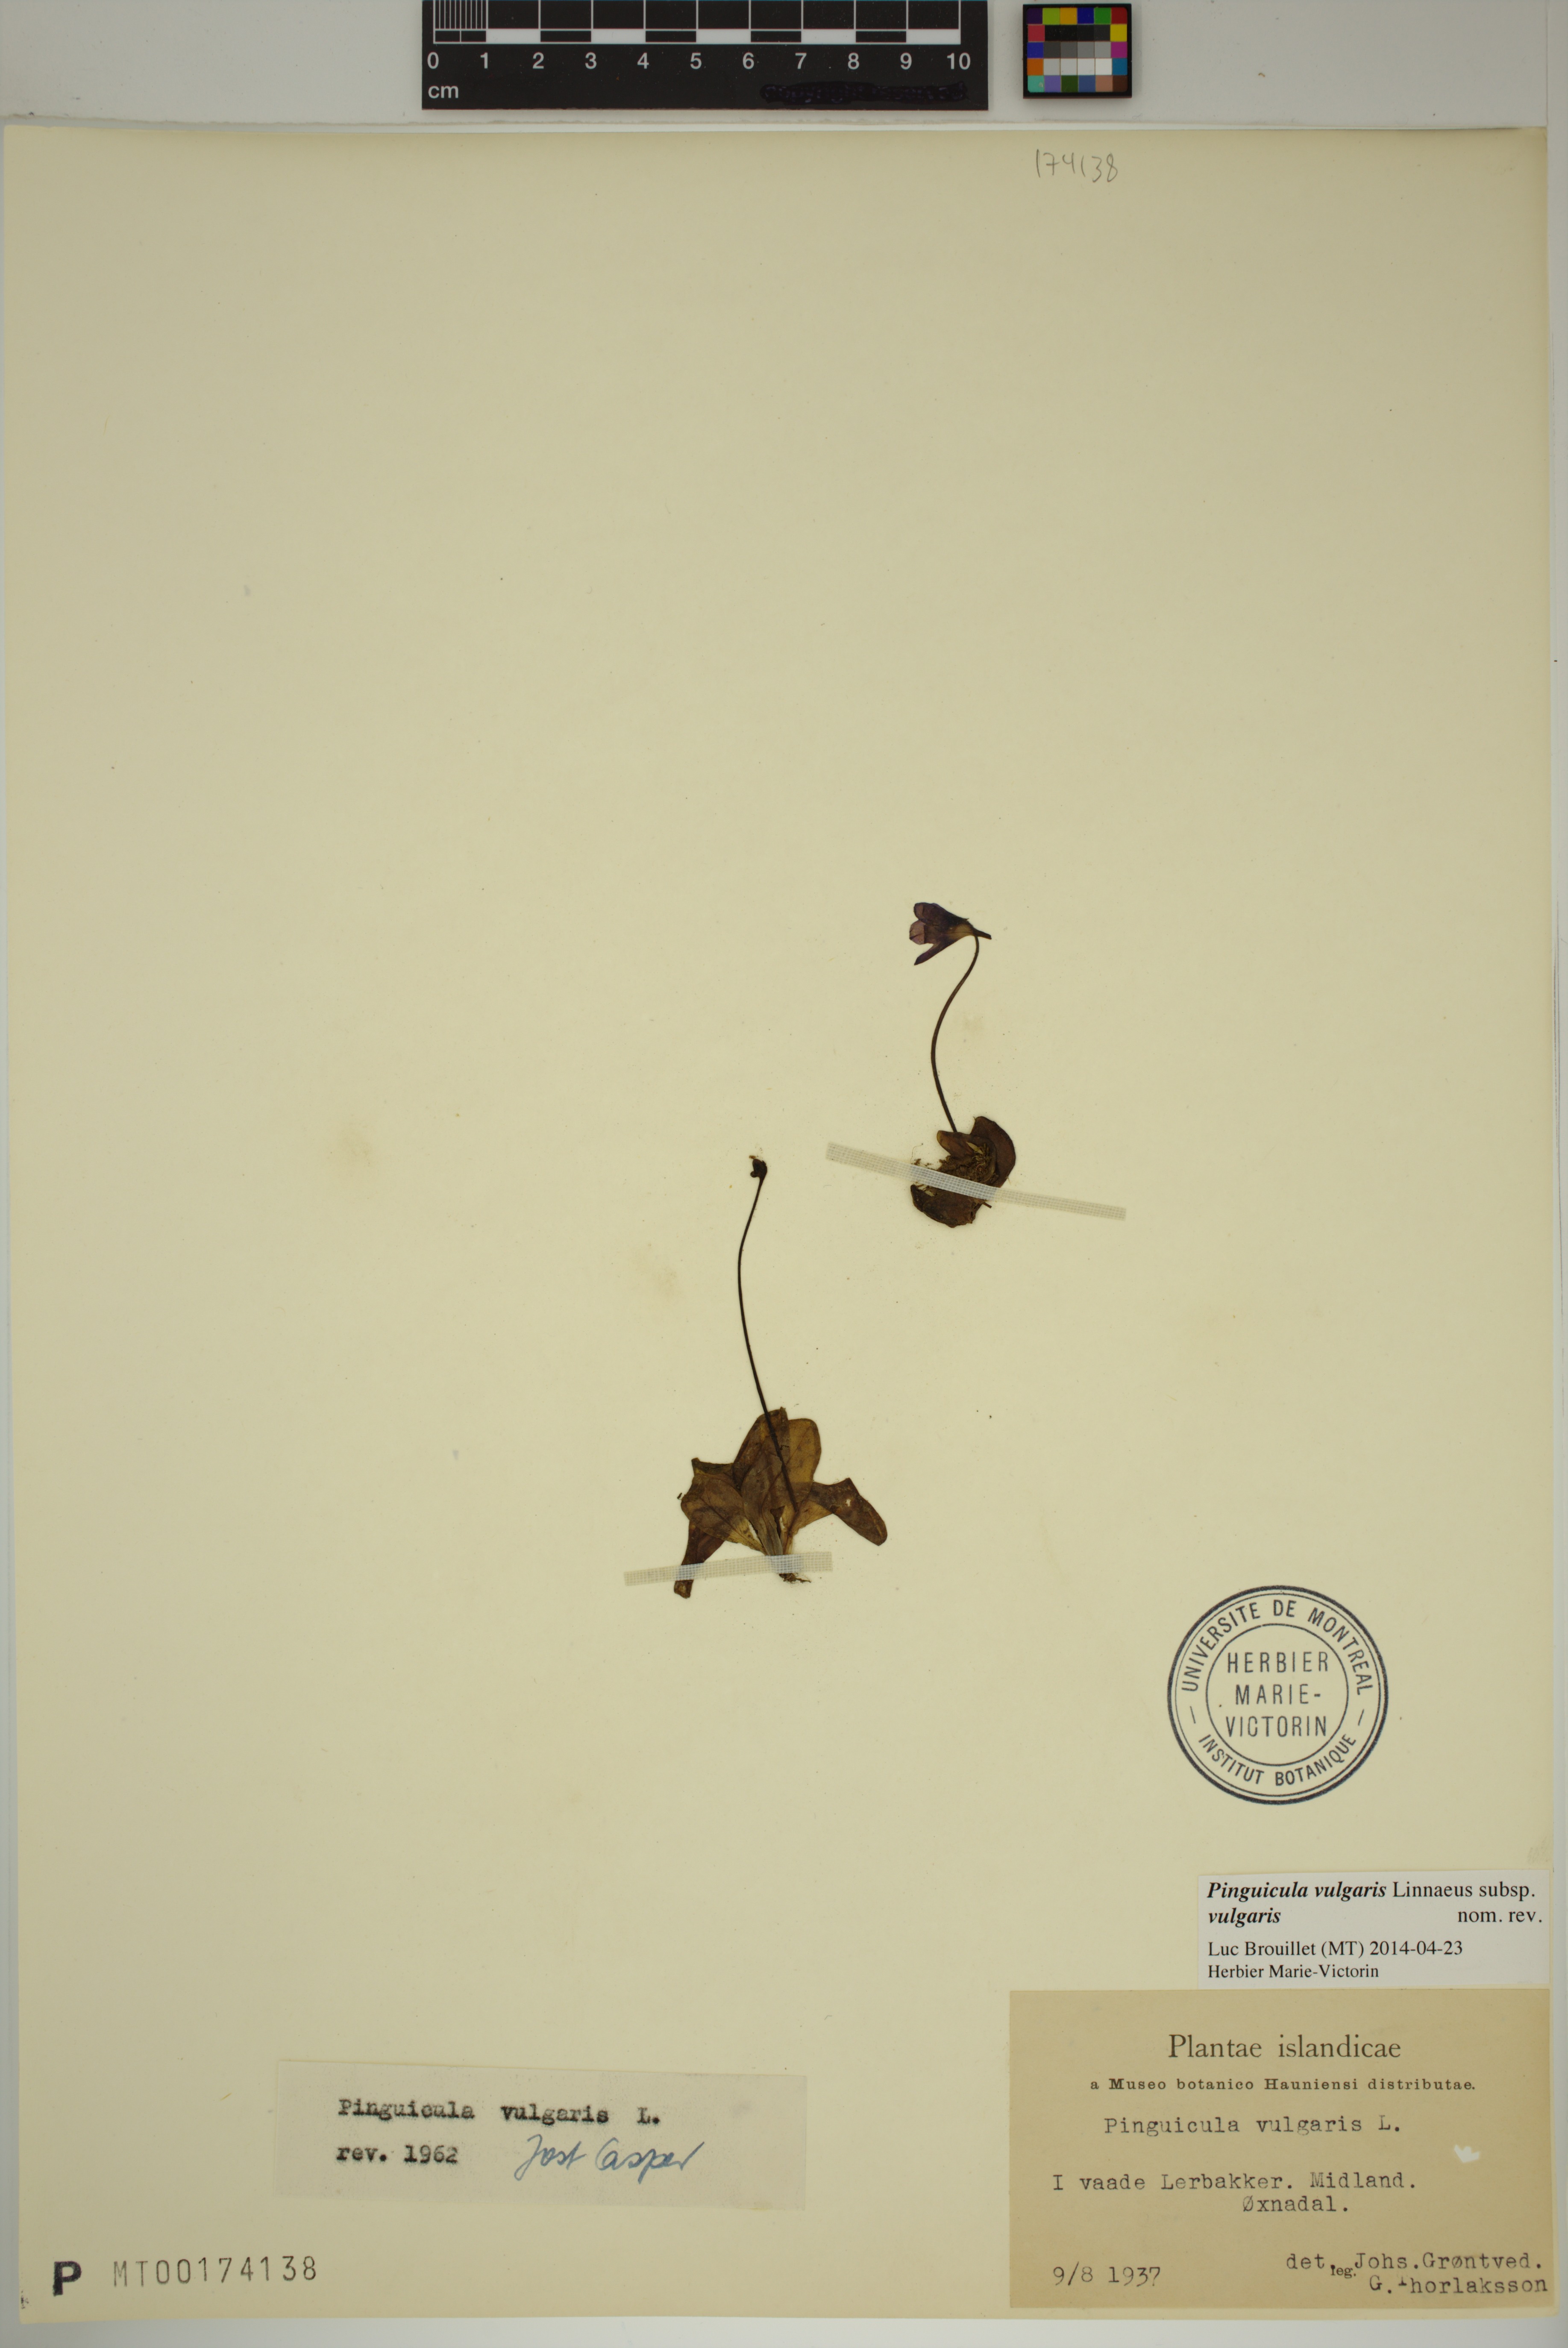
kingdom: Plantae
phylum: Tracheophyta
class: Magnoliopsida
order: Lamiales
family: Lentibulariaceae
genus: Pinguicula
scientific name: Pinguicula vulgaris
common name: Common butterwort
